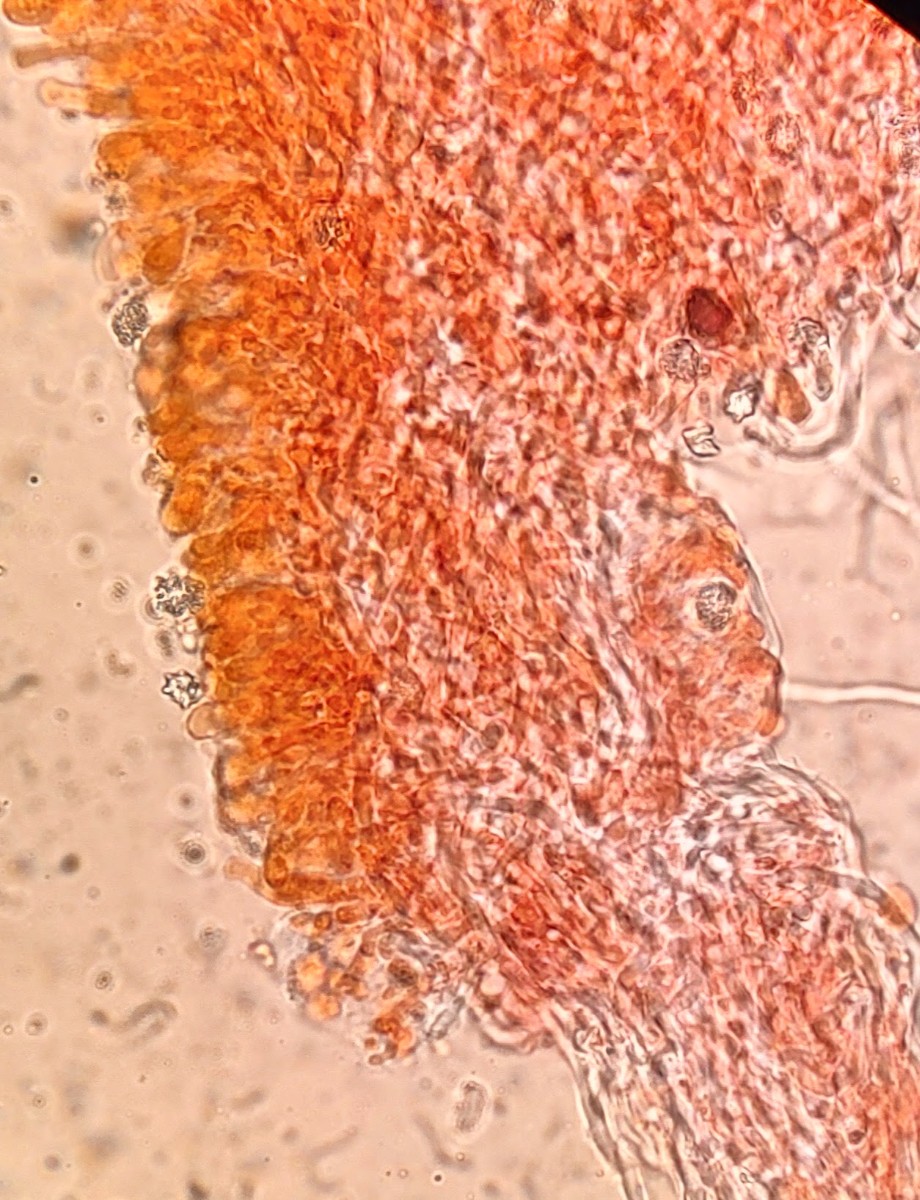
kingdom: Fungi
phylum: Basidiomycota
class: Agaricomycetes
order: Hymenochaetales
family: Rickenellaceae
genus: Sidera
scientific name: Sidera vulgaris
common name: fin flødeporesvamp
